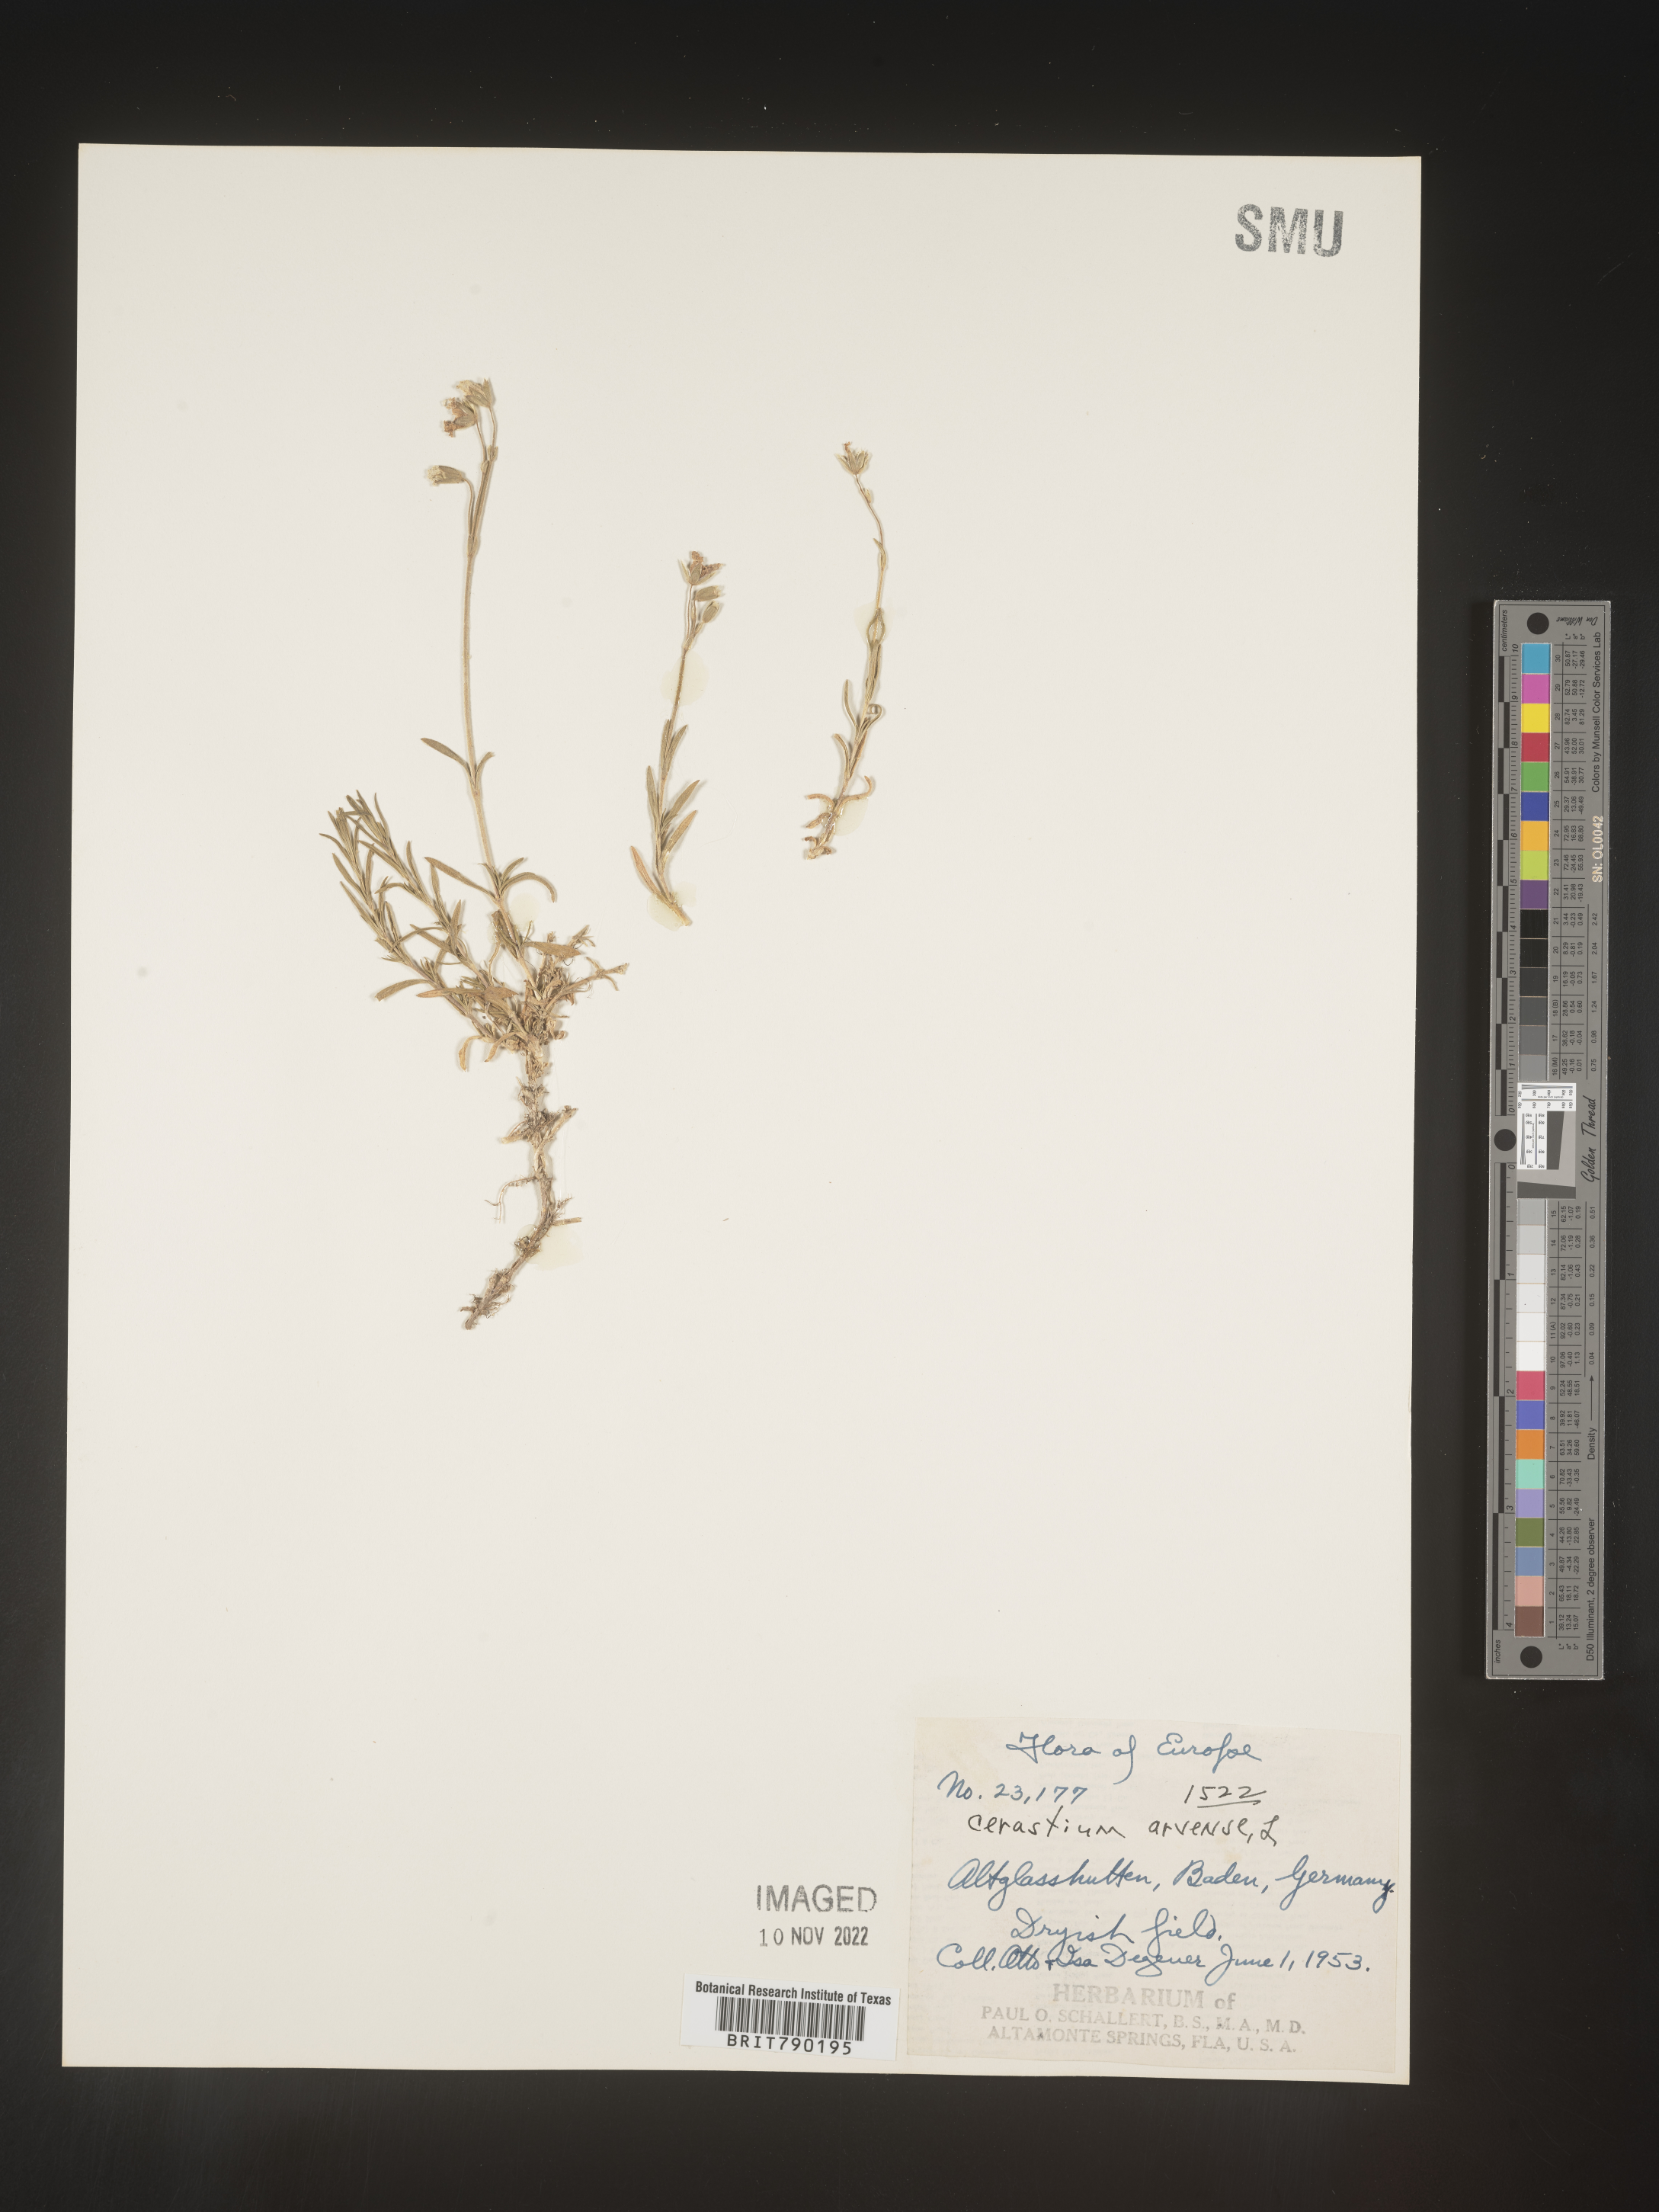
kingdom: Plantae
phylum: Tracheophyta
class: Magnoliopsida
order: Caryophyllales
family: Caryophyllaceae
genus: Cerastium
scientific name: Cerastium
